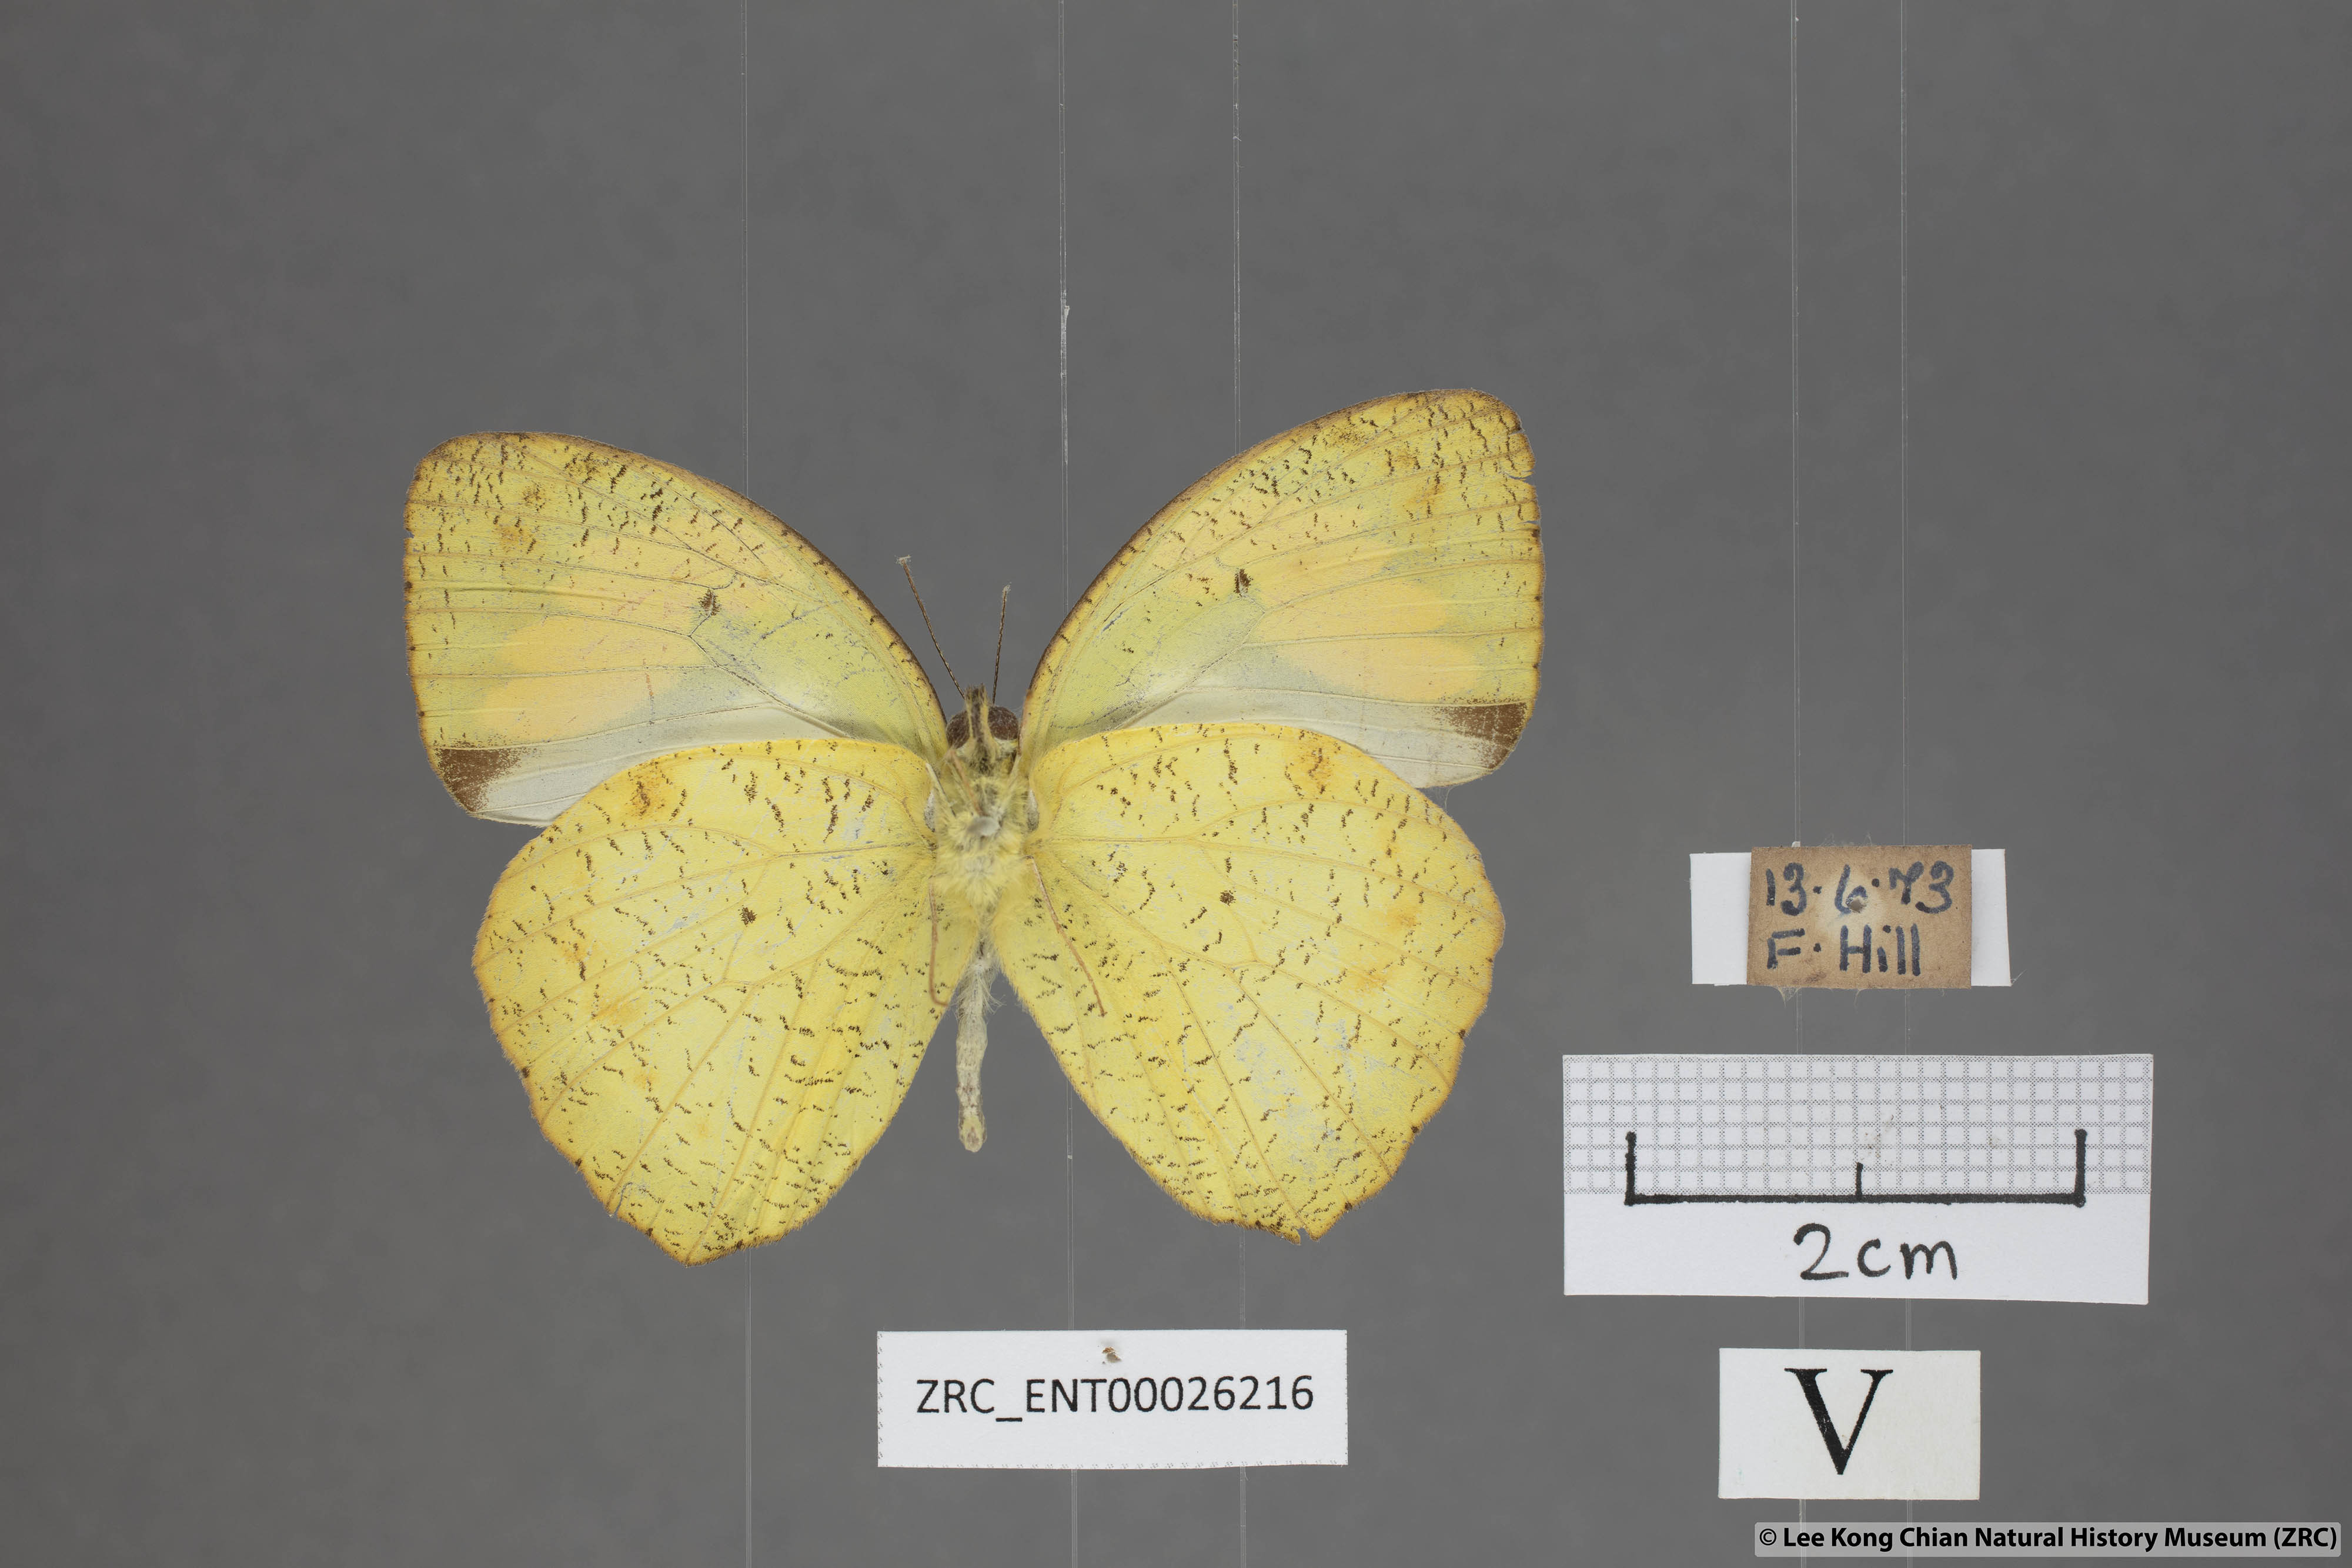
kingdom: Animalia
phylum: Arthropoda
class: Insecta
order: Lepidoptera
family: Pieridae
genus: Ixias
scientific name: Ixias pyrene
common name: Yellow orange tip
